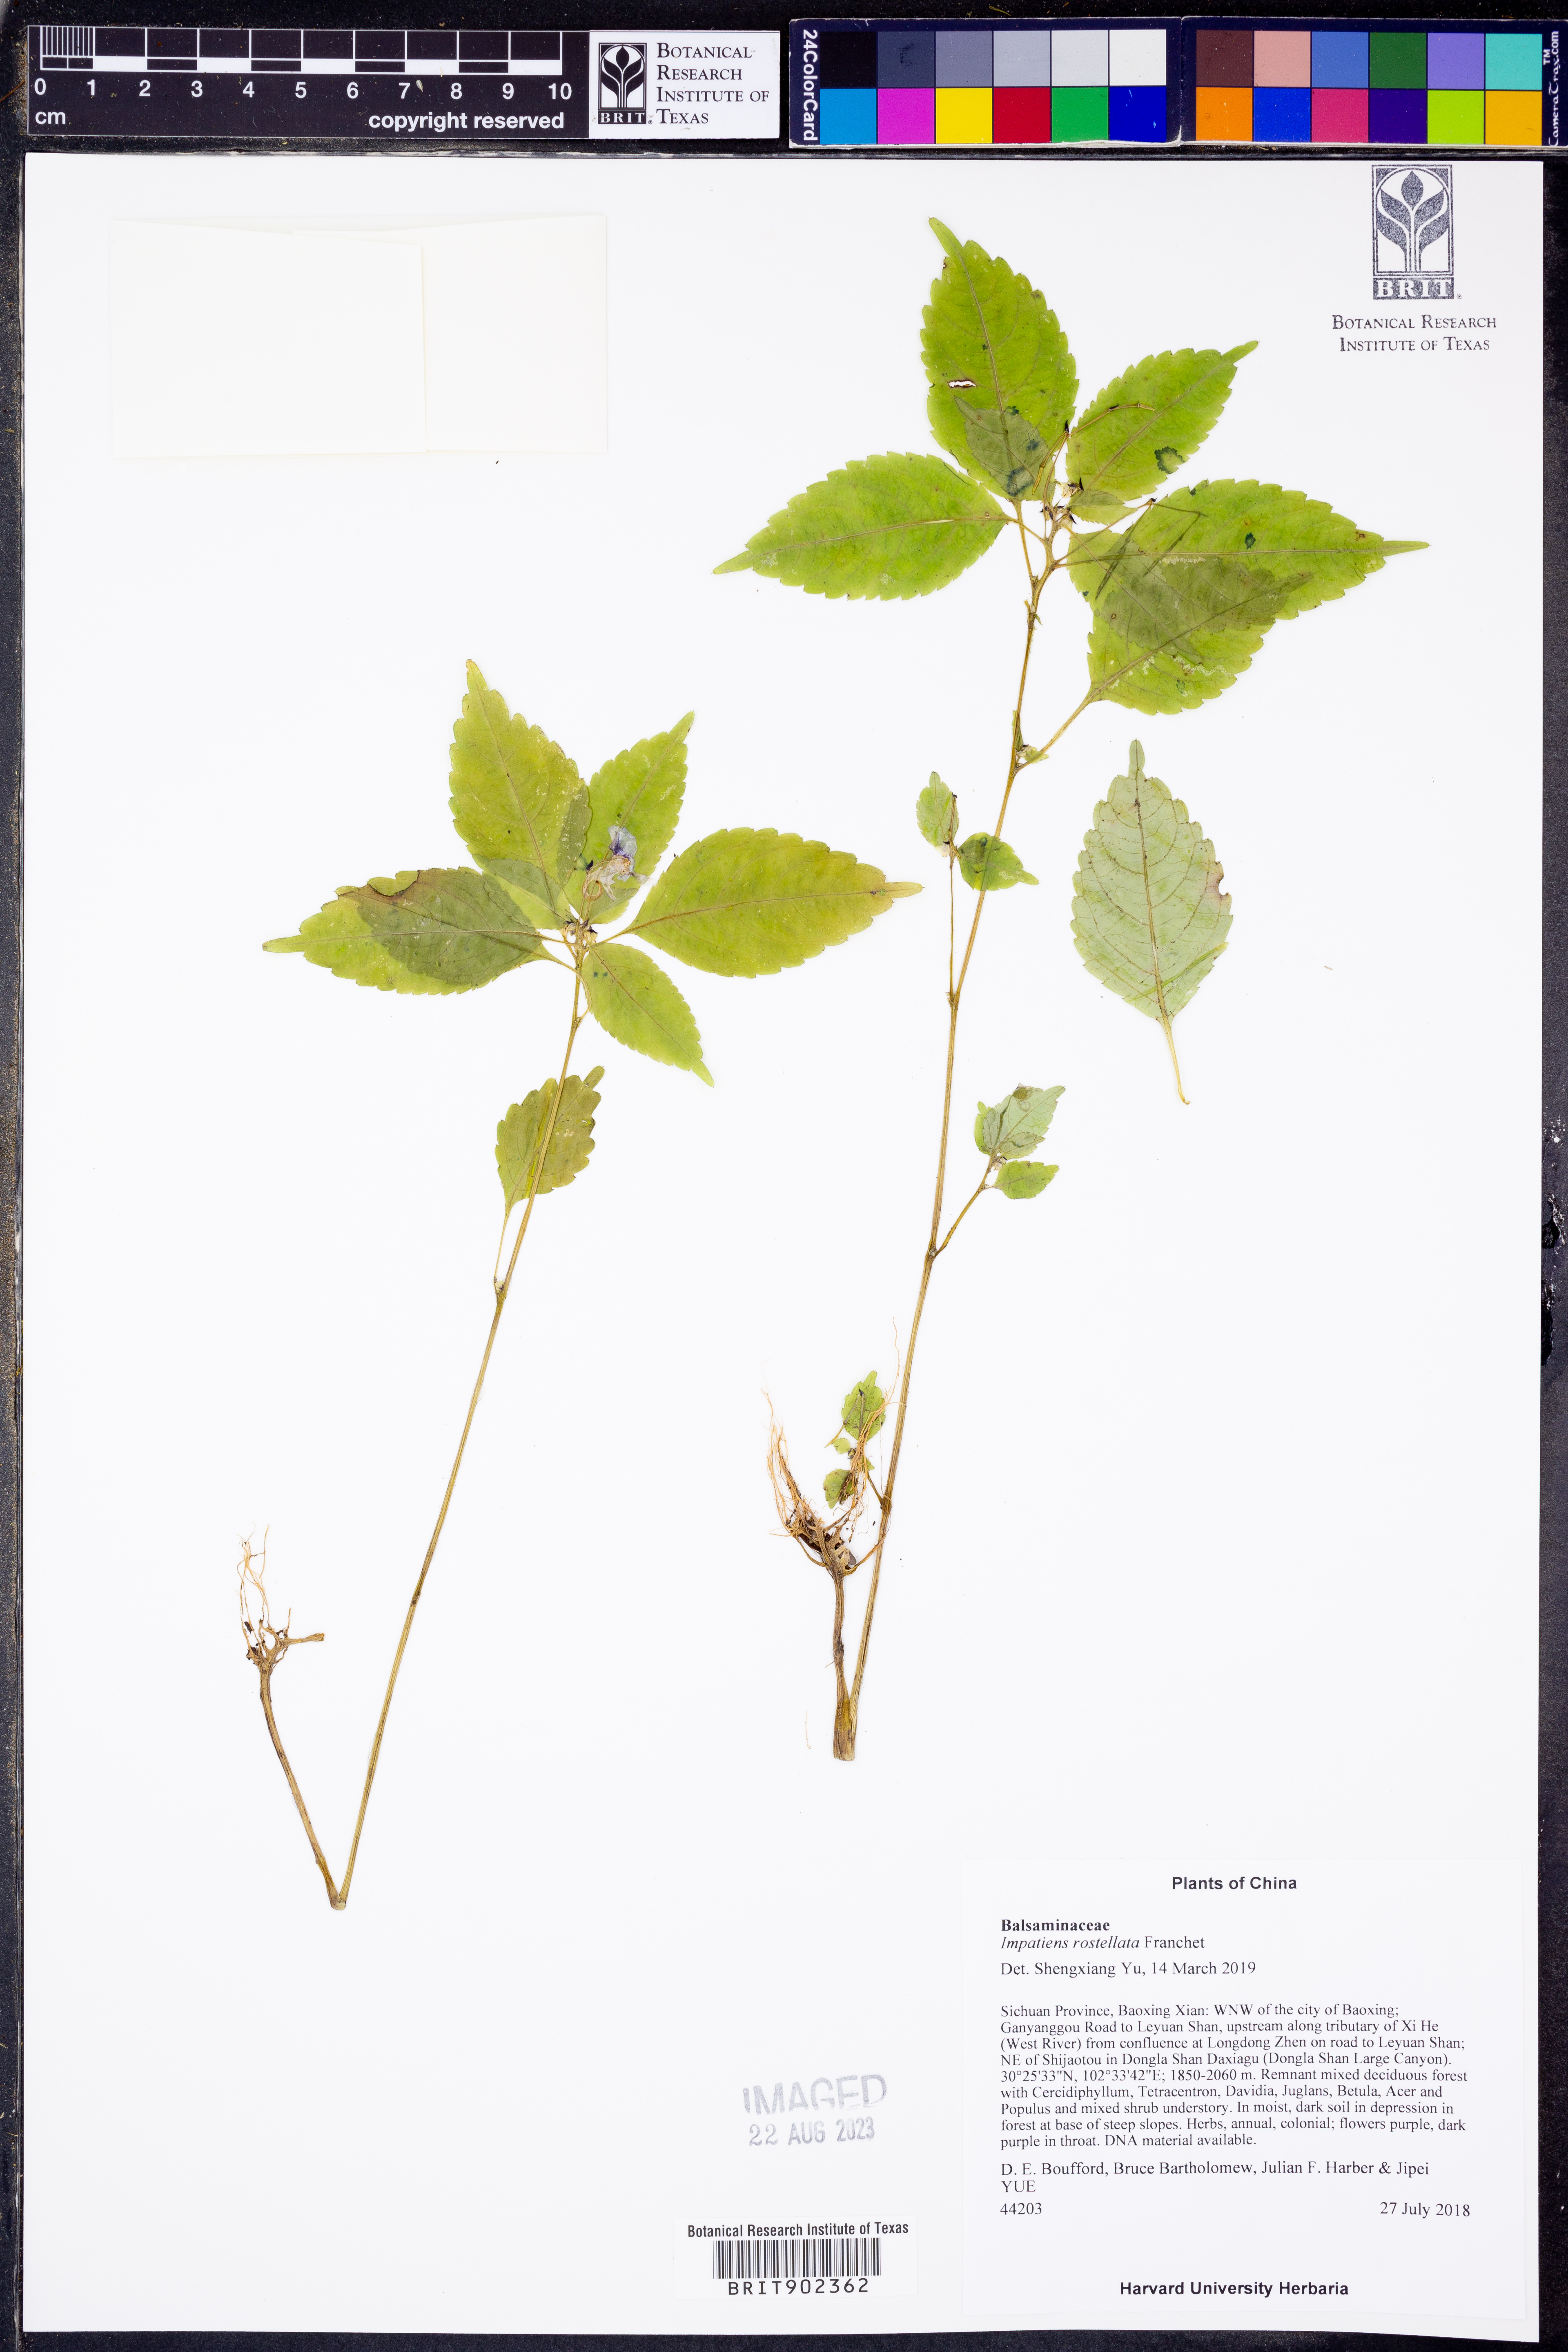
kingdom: Plantae
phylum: Tracheophyta
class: Magnoliopsida
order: Ericales
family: Balsaminaceae
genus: Impatiens
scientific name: Impatiens
